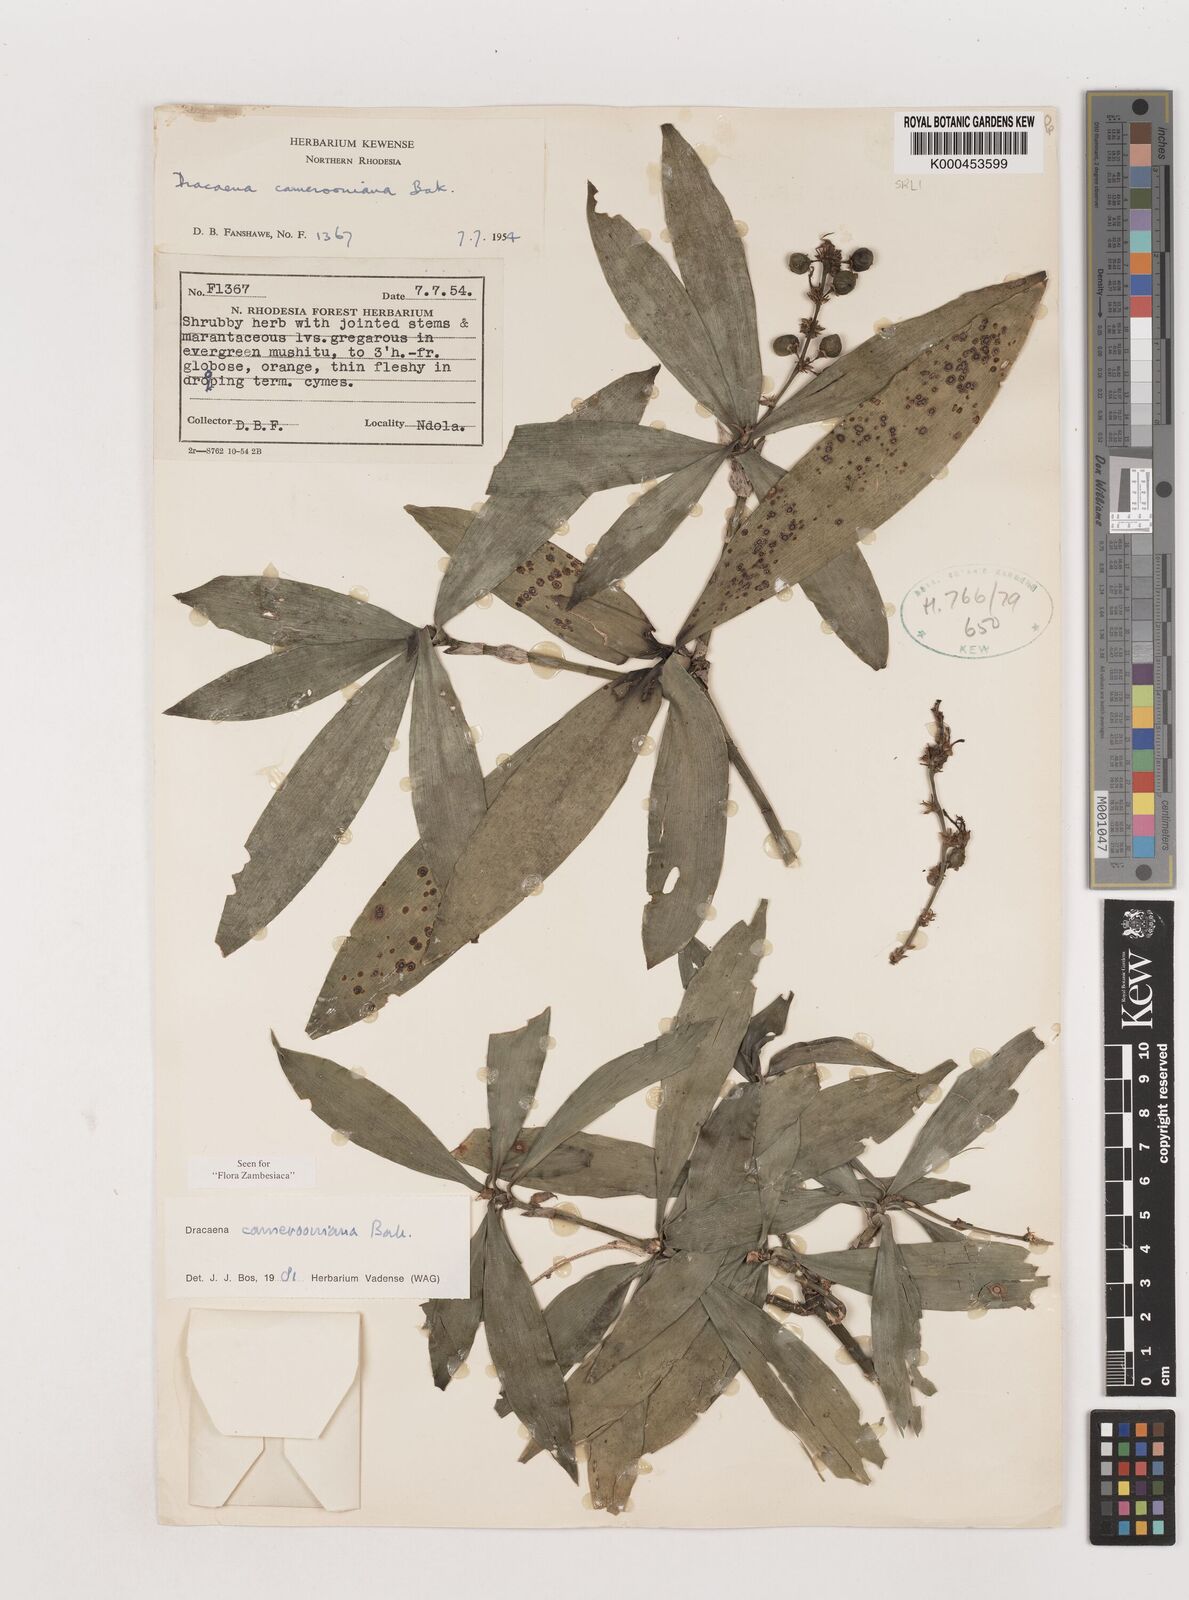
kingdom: Plantae
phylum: Tracheophyta
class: Liliopsida
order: Asparagales
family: Asparagaceae
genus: Dracaena
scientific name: Dracaena camerooniana
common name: Dragon tree
